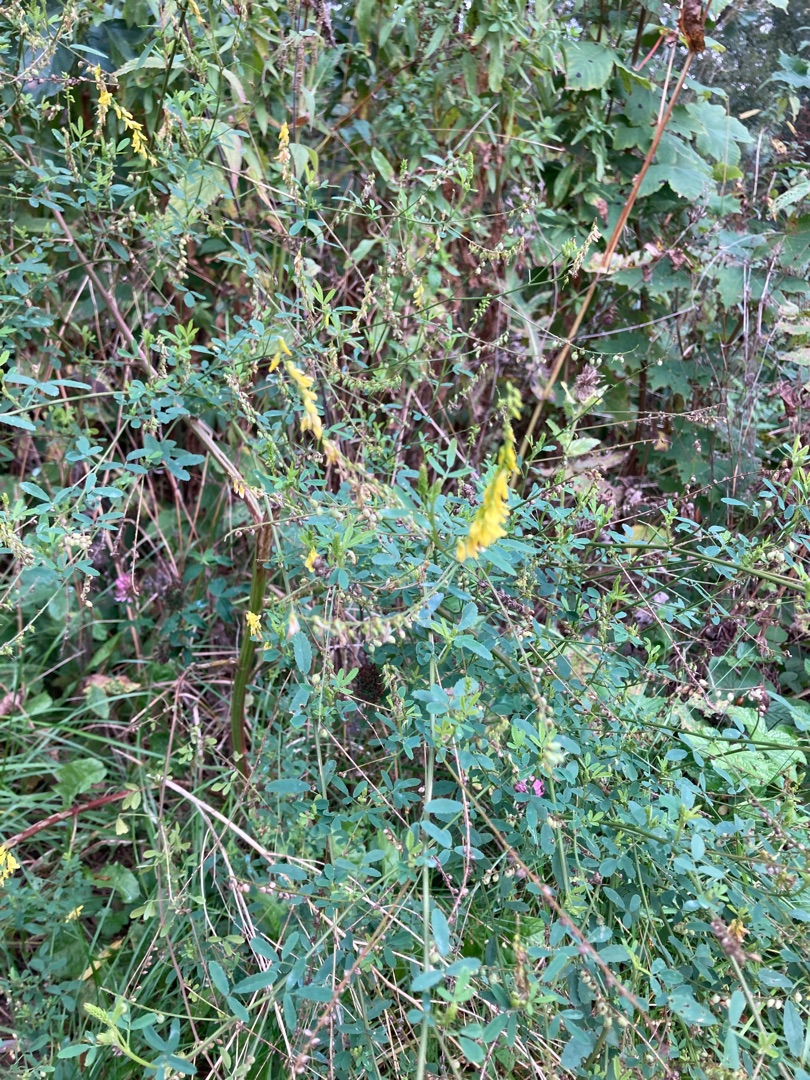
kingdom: Plantae
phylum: Tracheophyta
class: Magnoliopsida
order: Fabales
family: Fabaceae
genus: Melilotus
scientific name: Melilotus
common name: Stenkløverslægten
